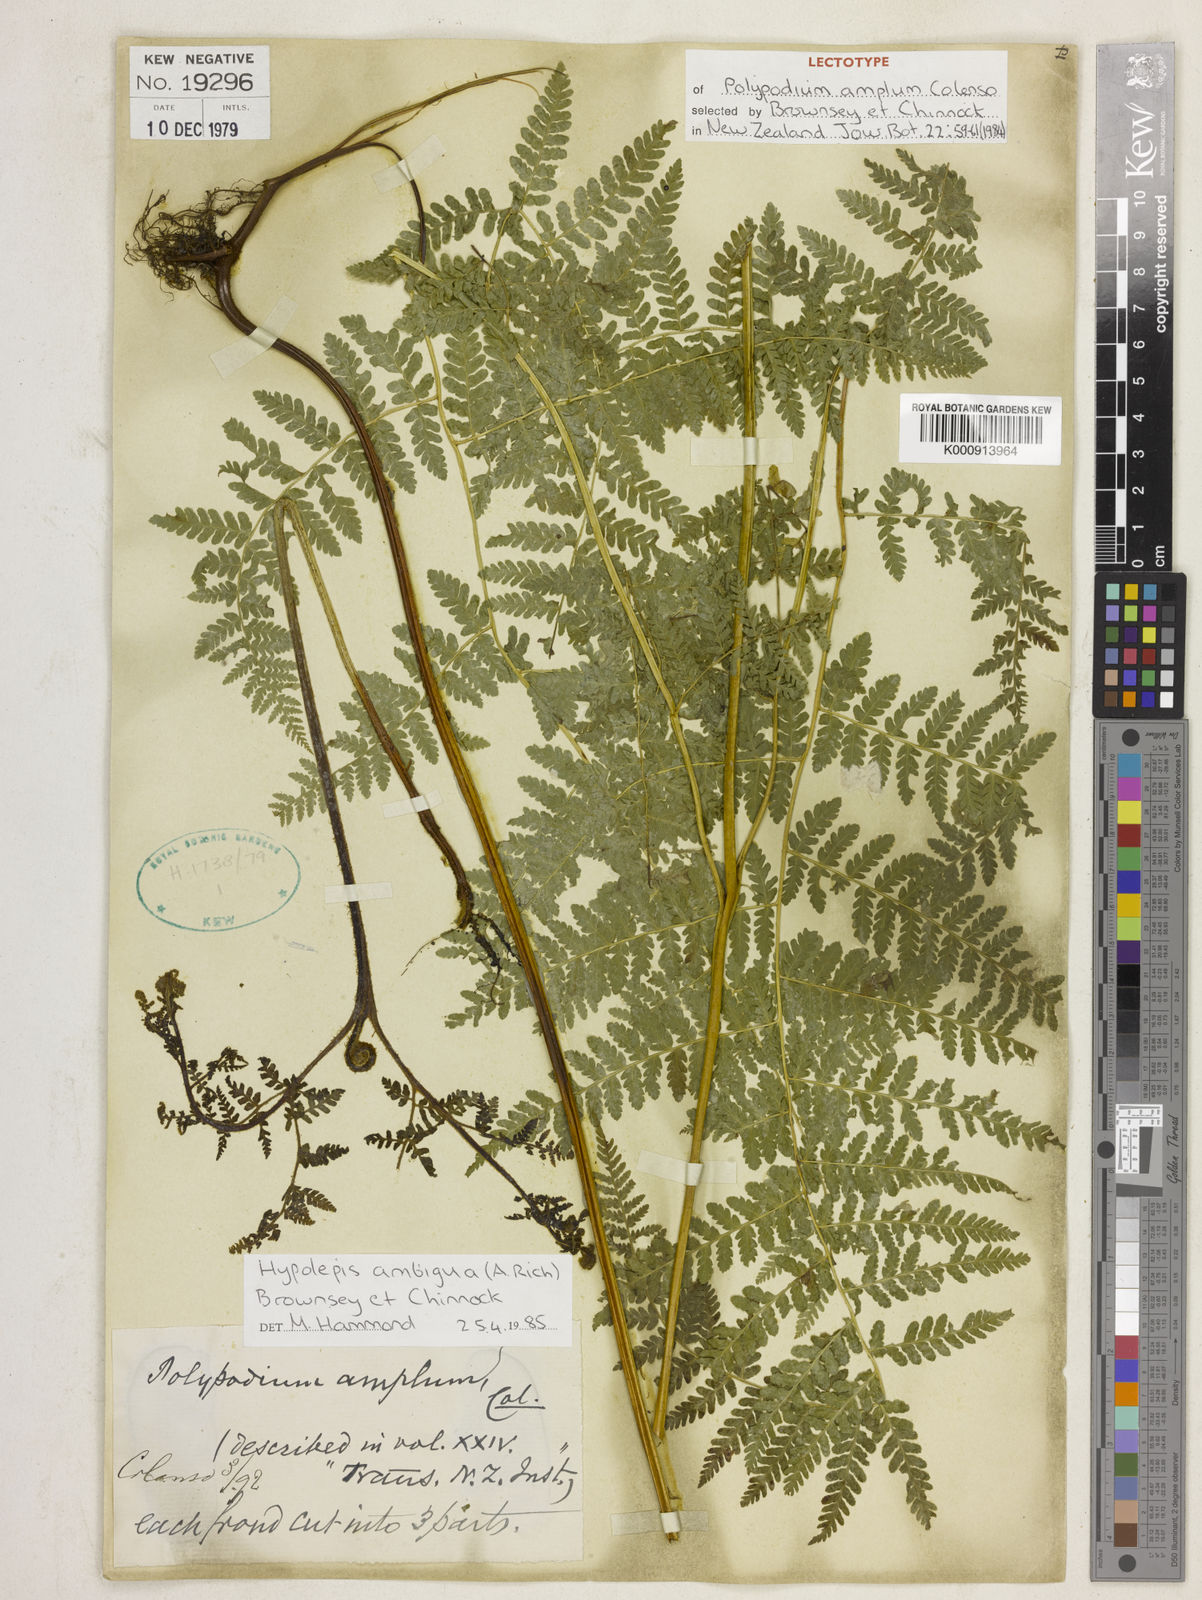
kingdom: Plantae
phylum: Tracheophyta
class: Polypodiopsida
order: Polypodiales
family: Dennstaedtiaceae
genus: Hypolepis
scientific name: Hypolepis ambigua
